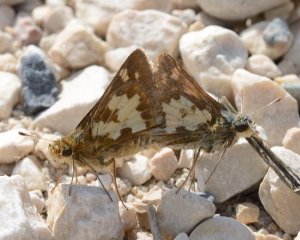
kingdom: Animalia
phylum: Arthropoda
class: Insecta
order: Lepidoptera
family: Hesperiidae
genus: Polites
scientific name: Polites coras
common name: Peck's Skipper
